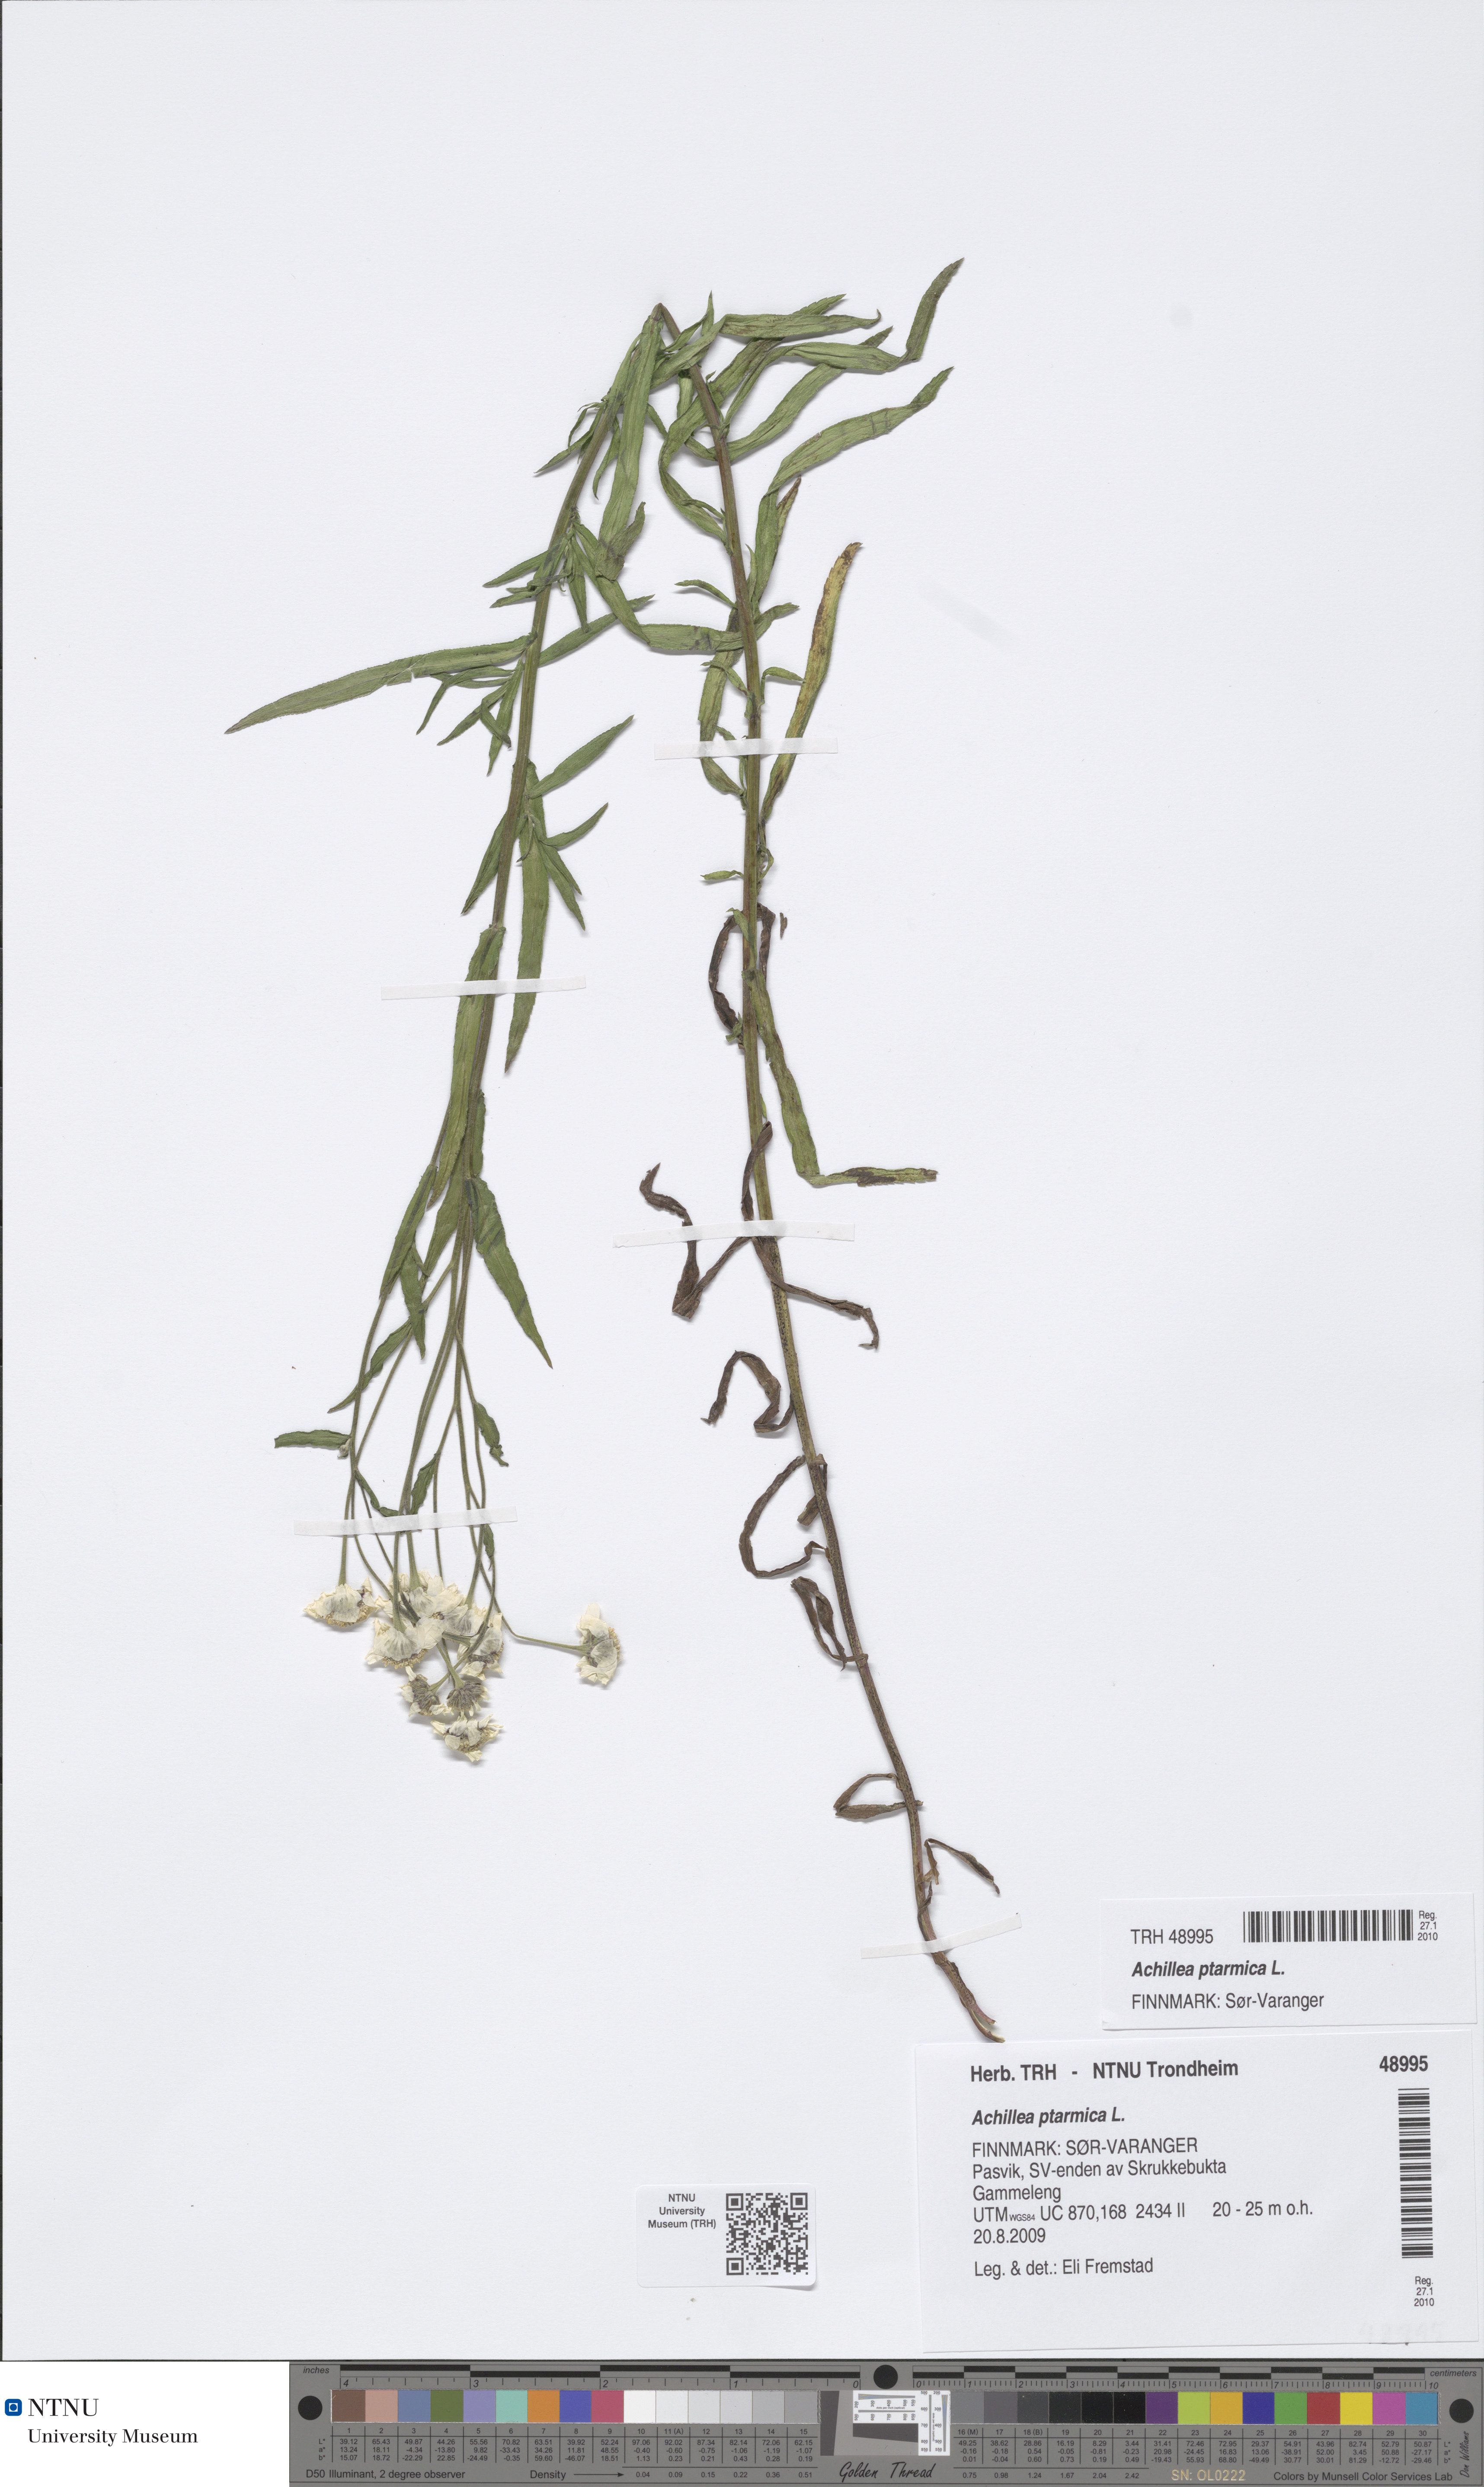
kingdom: Plantae
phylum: Tracheophyta
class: Magnoliopsida
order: Asterales
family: Asteraceae
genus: Achillea
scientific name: Achillea ptarmica
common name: Sneezeweed
